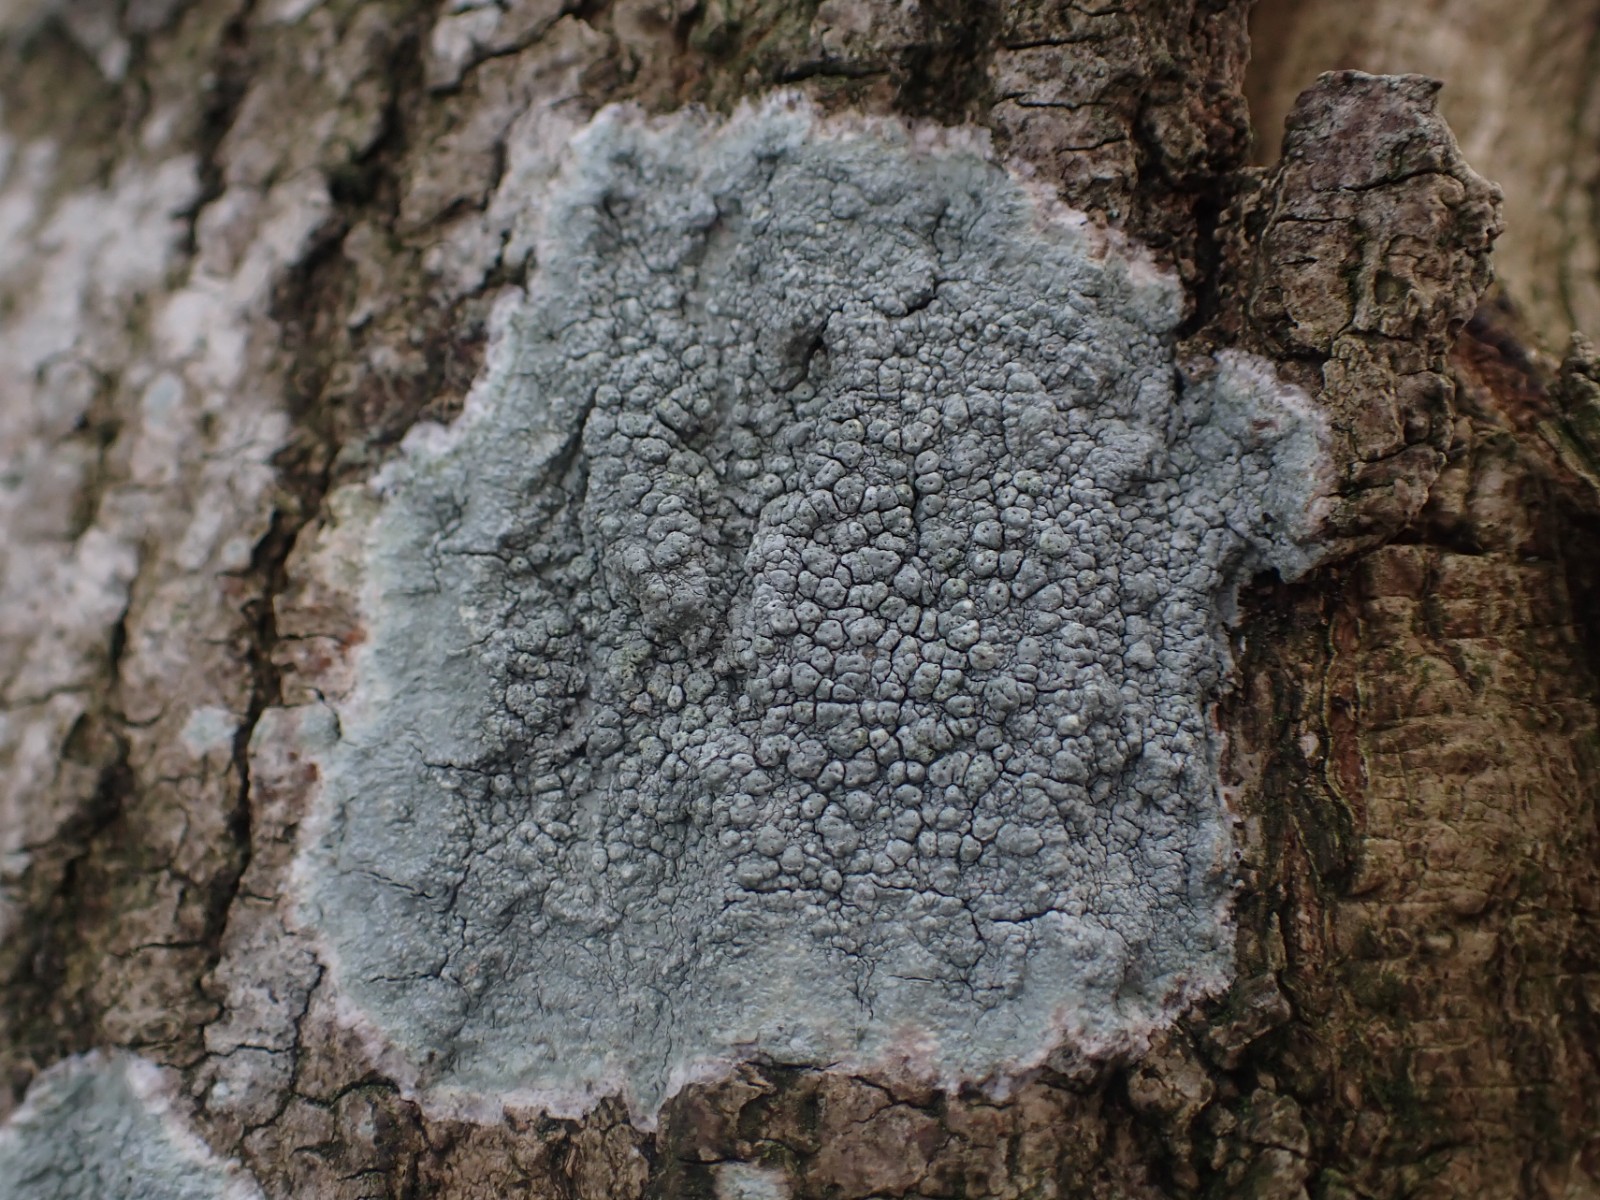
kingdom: Fungi
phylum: Ascomycota
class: Lecanoromycetes
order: Pertusariales
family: Pertusariaceae
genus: Pertusaria
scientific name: Pertusaria pertusa
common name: almindelig prikvortelav
